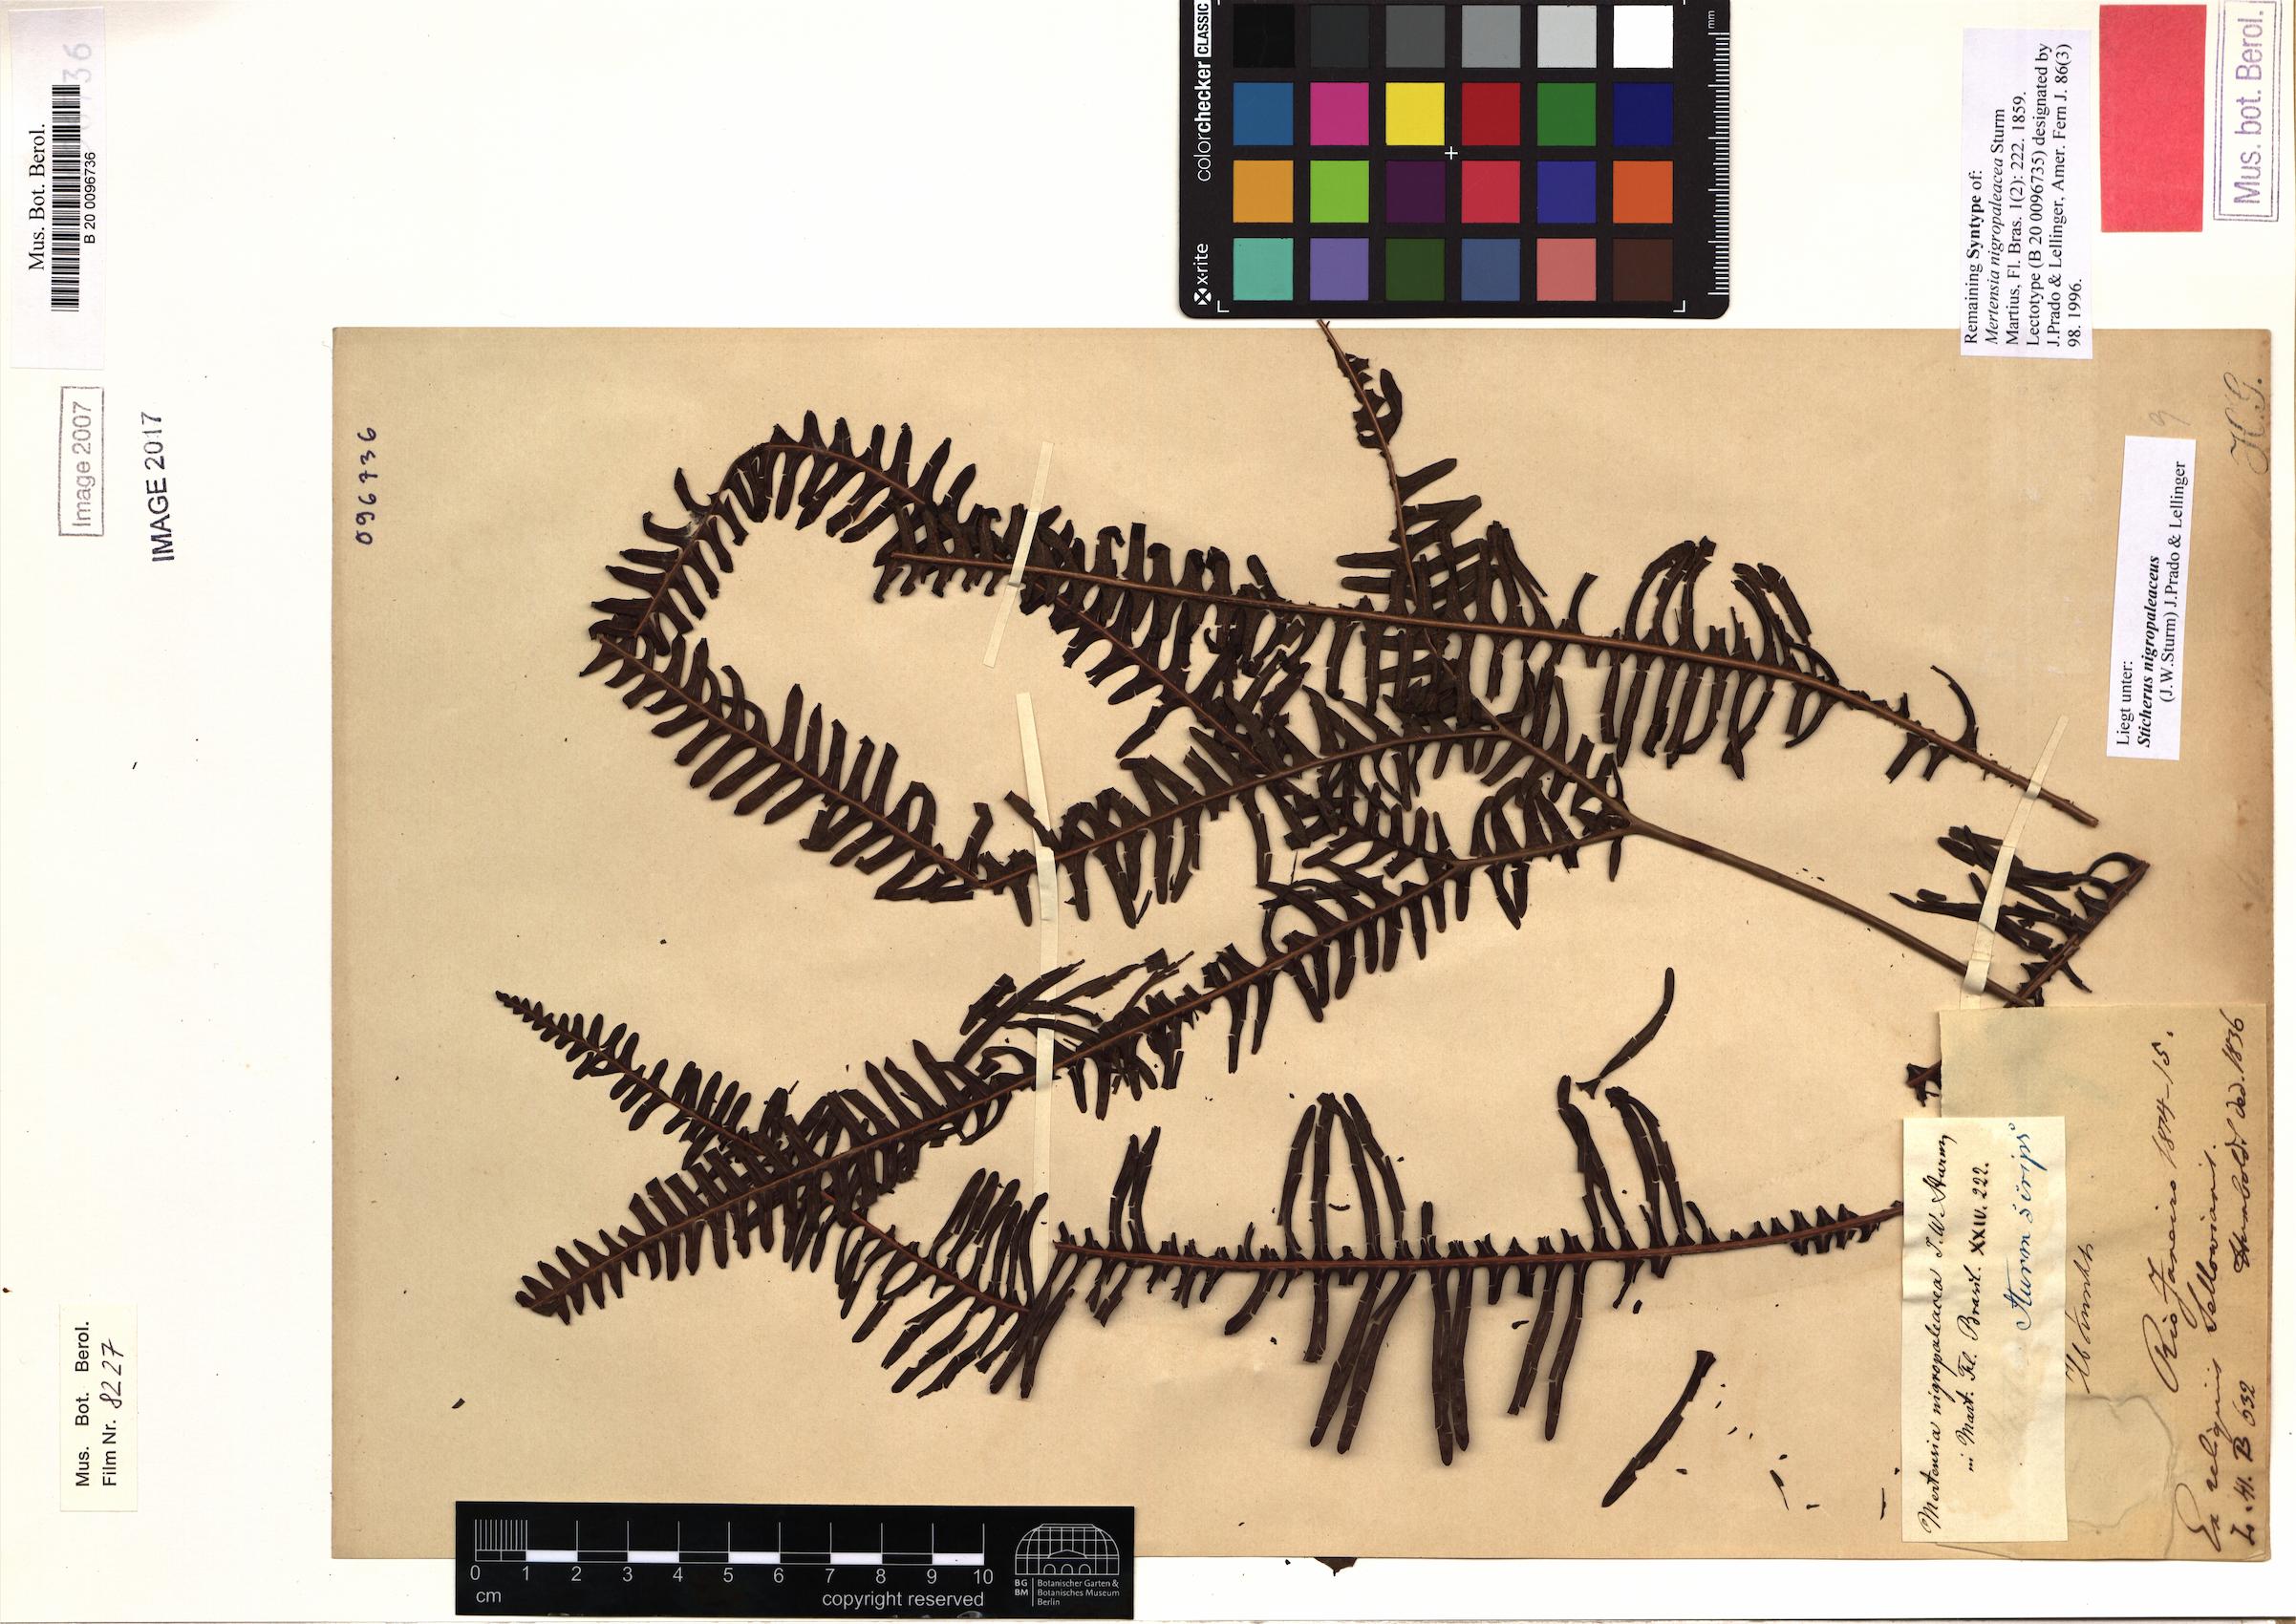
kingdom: Plantae
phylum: Tracheophyta
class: Polypodiopsida
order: Gleicheniales
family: Gleicheniaceae
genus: Sticherus
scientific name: Sticherus nigropaleaceus
